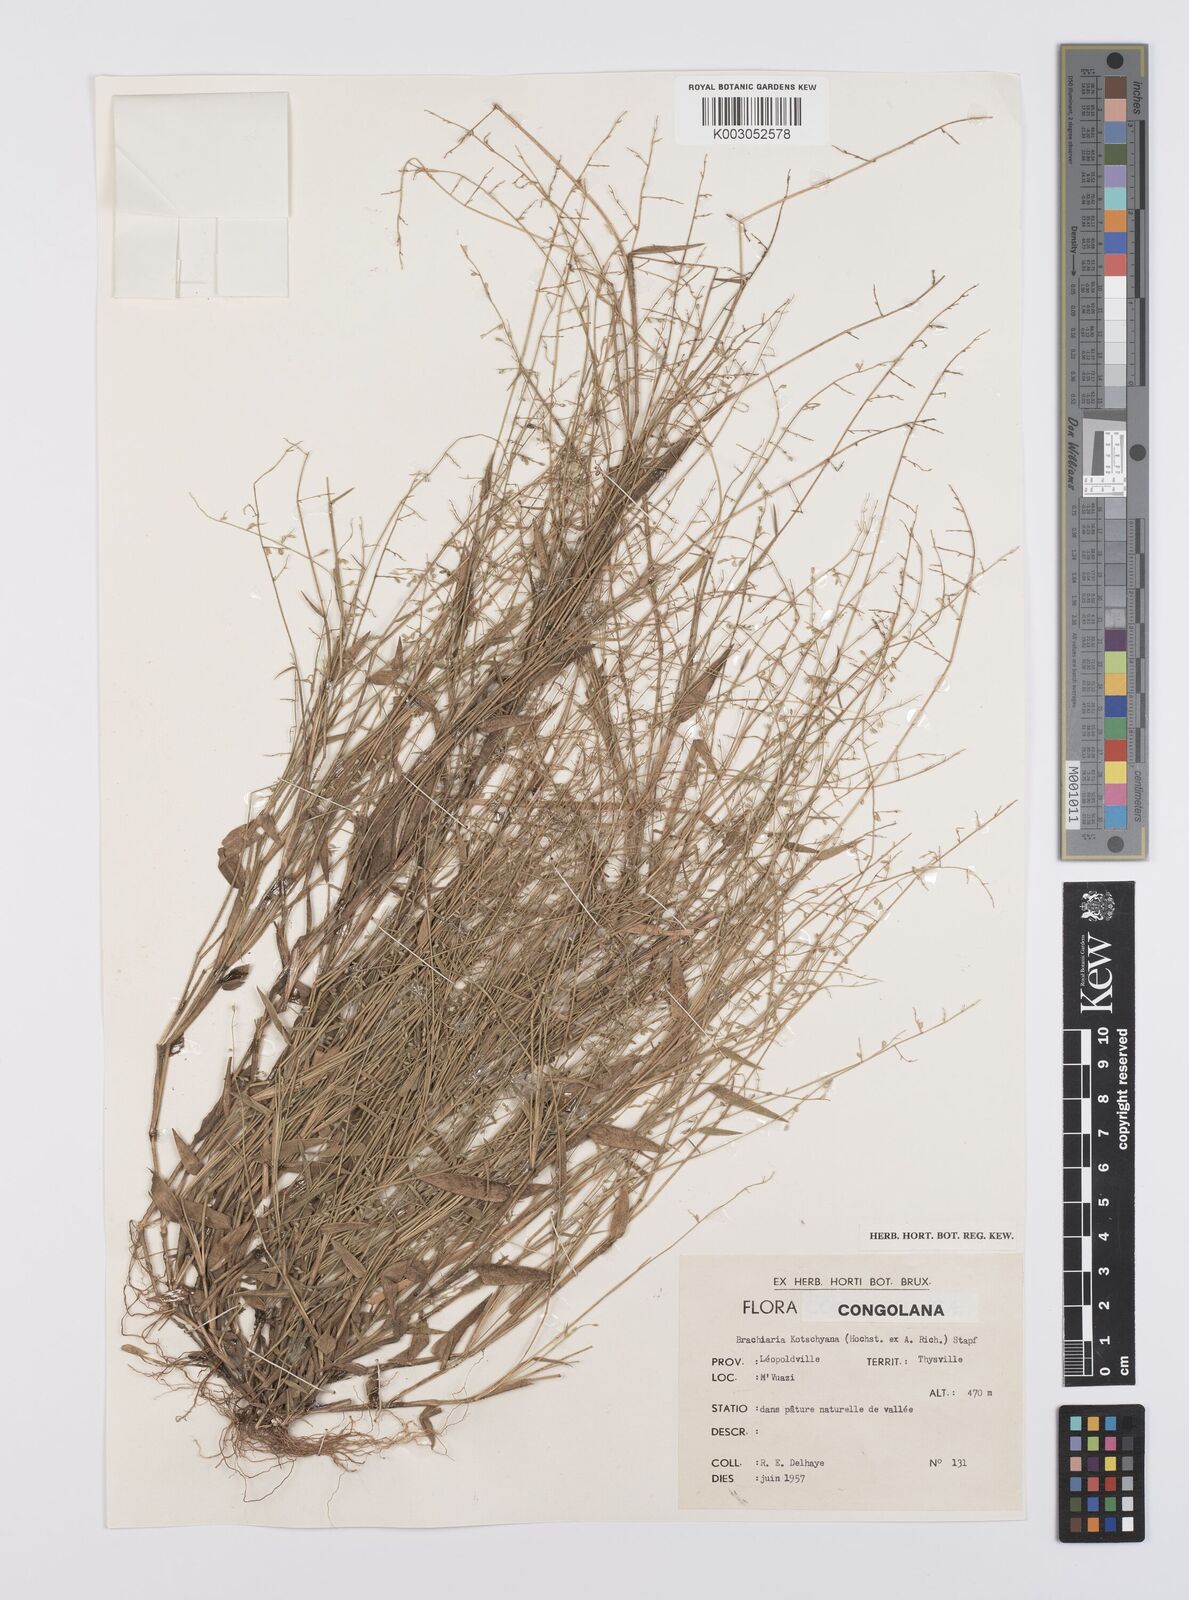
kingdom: Plantae
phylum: Tracheophyta
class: Liliopsida
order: Poales
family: Poaceae
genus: Urochloa
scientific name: Urochloa comata
